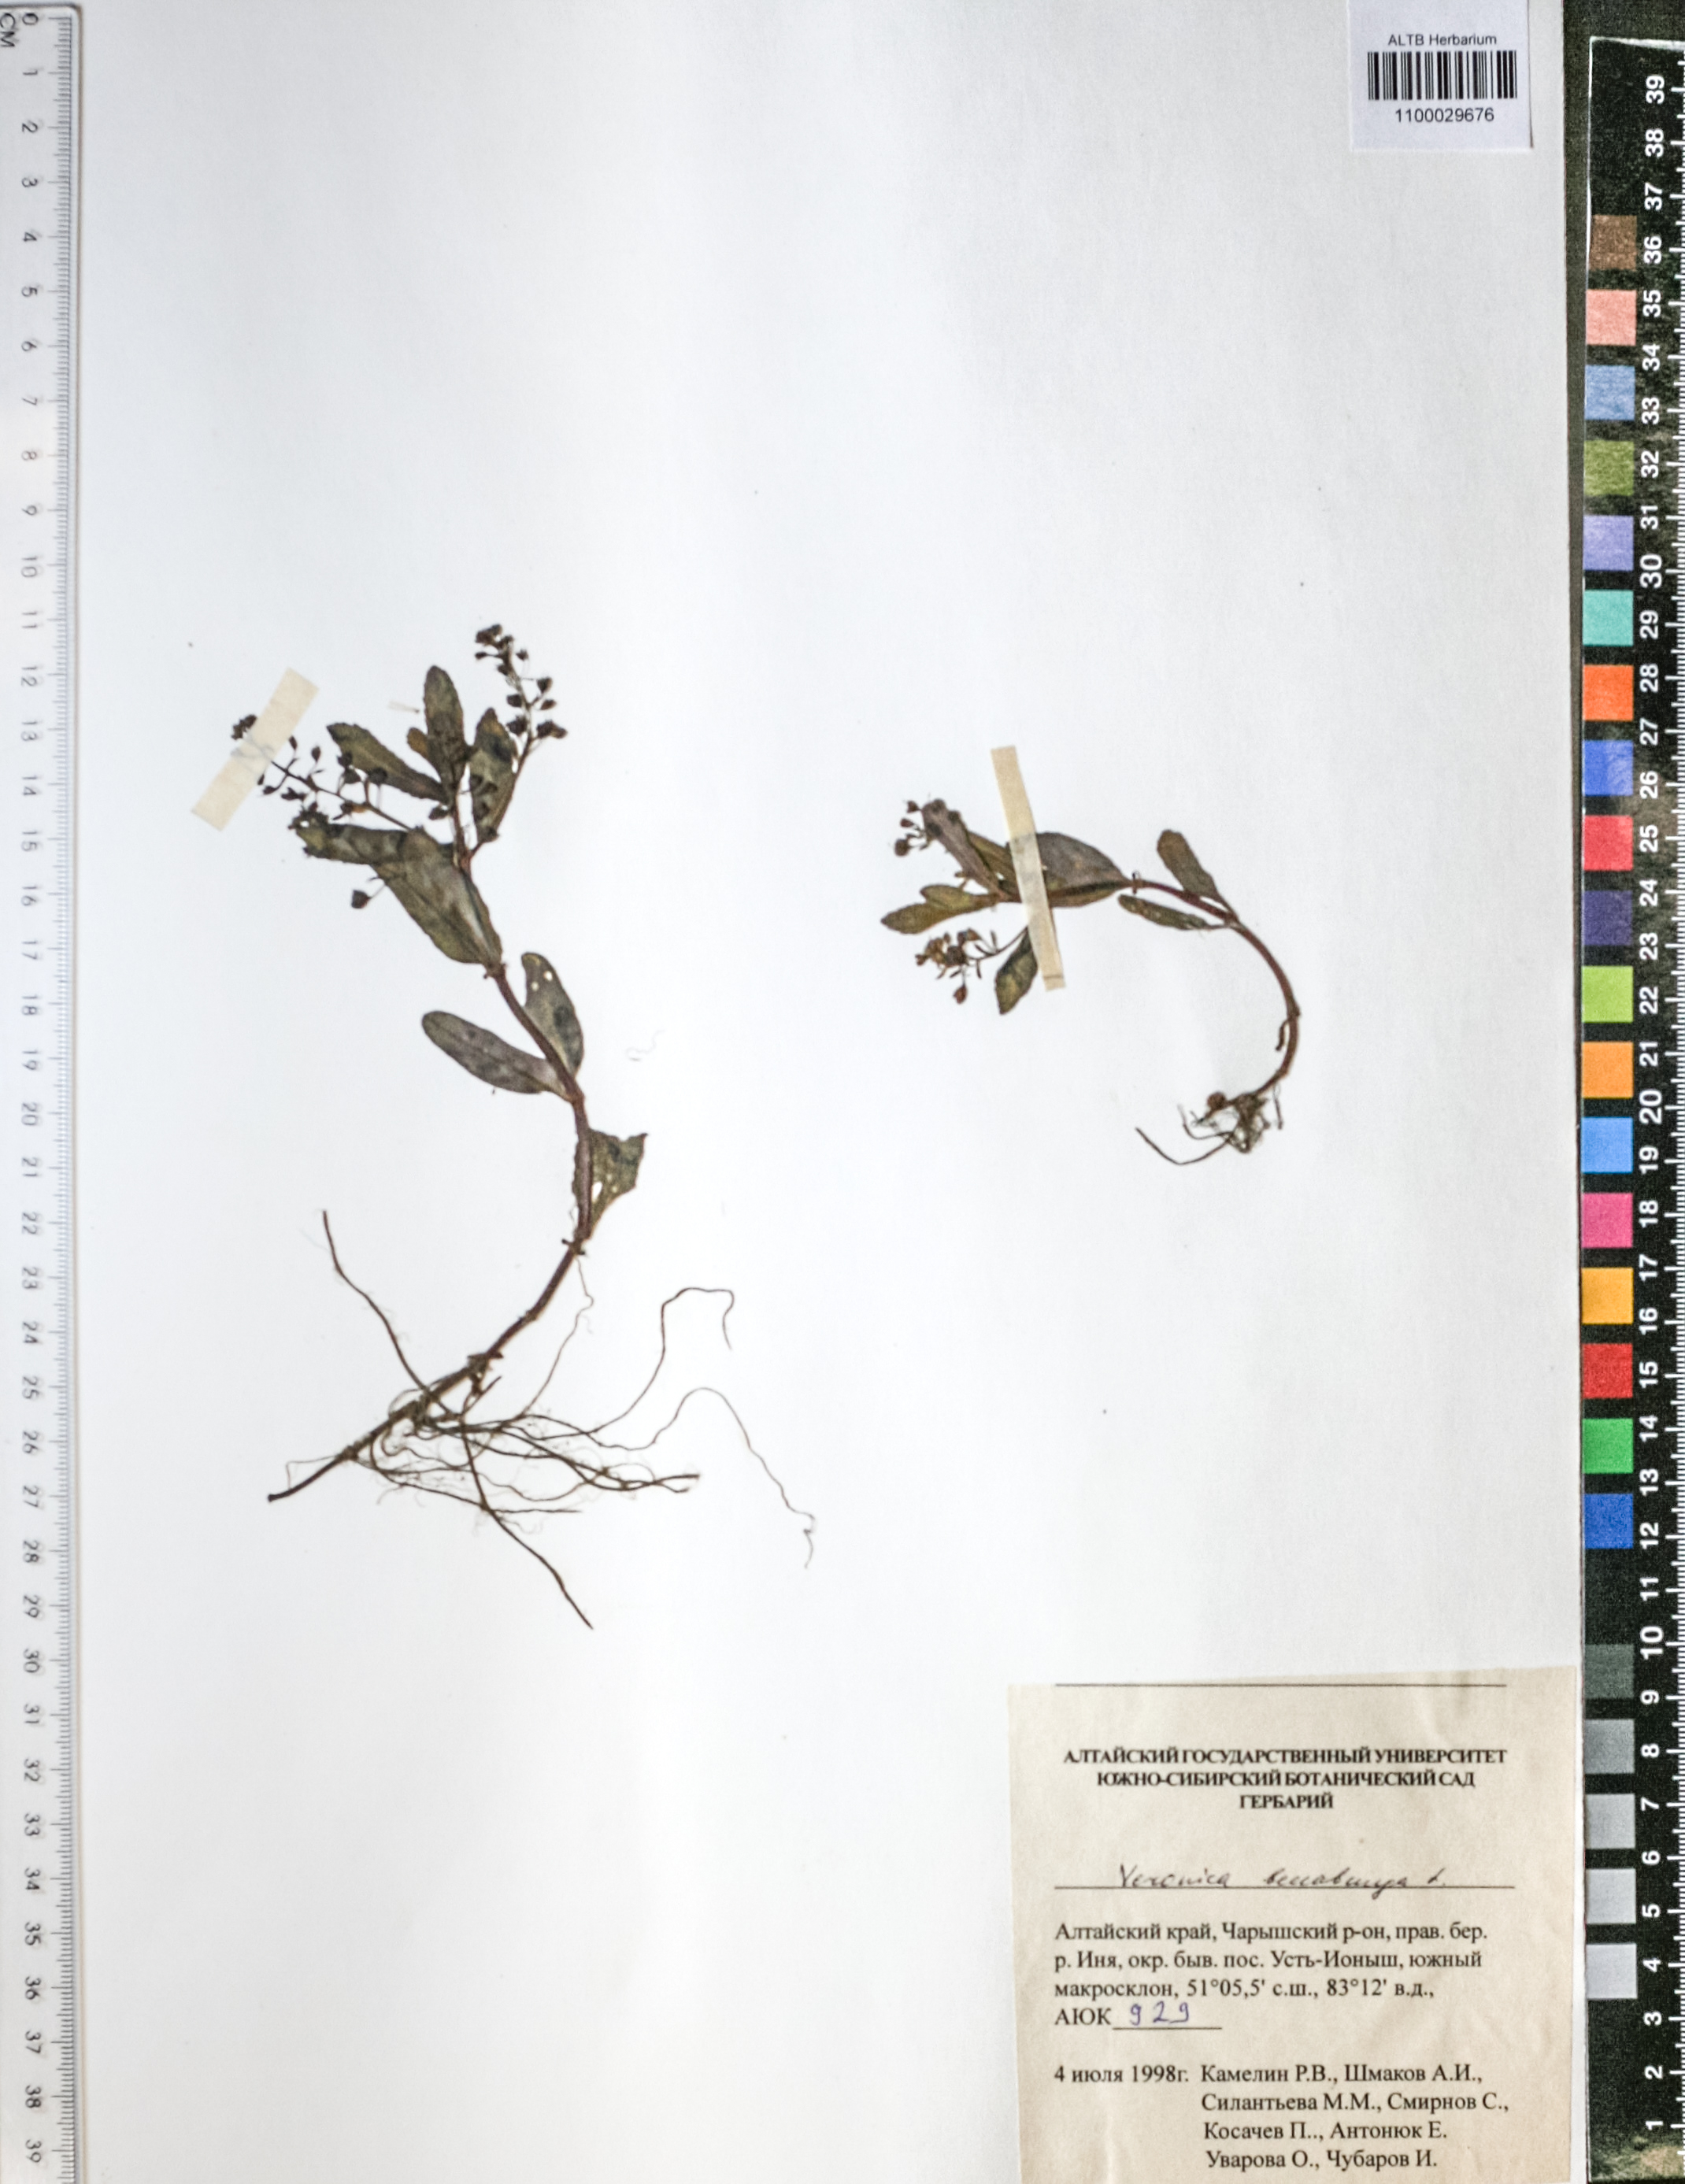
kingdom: Plantae
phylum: Tracheophyta
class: Magnoliopsida
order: Lamiales
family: Plantaginaceae
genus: Veronica
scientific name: Veronica beccabunga
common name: Brooklime
